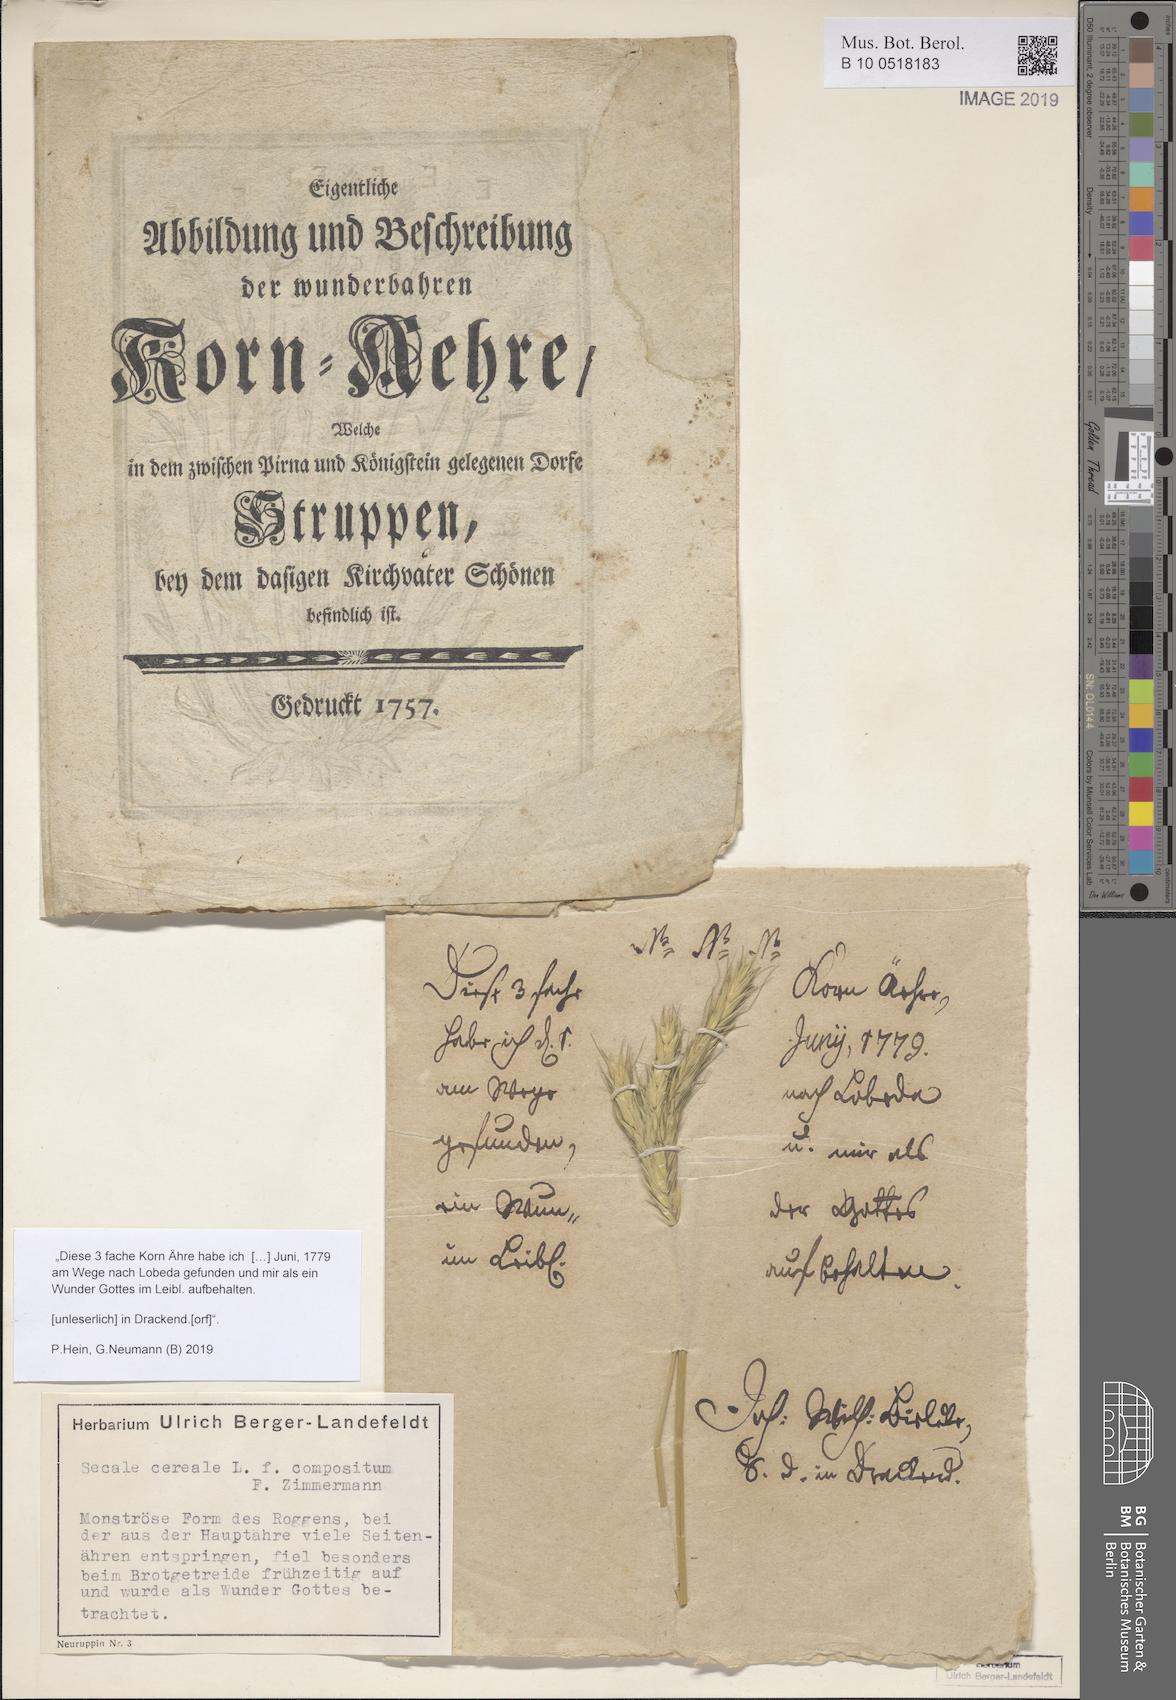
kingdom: Plantae
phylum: Tracheophyta
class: Liliopsida
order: Poales
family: Poaceae
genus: Secale
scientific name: Secale cereale
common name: Rye
